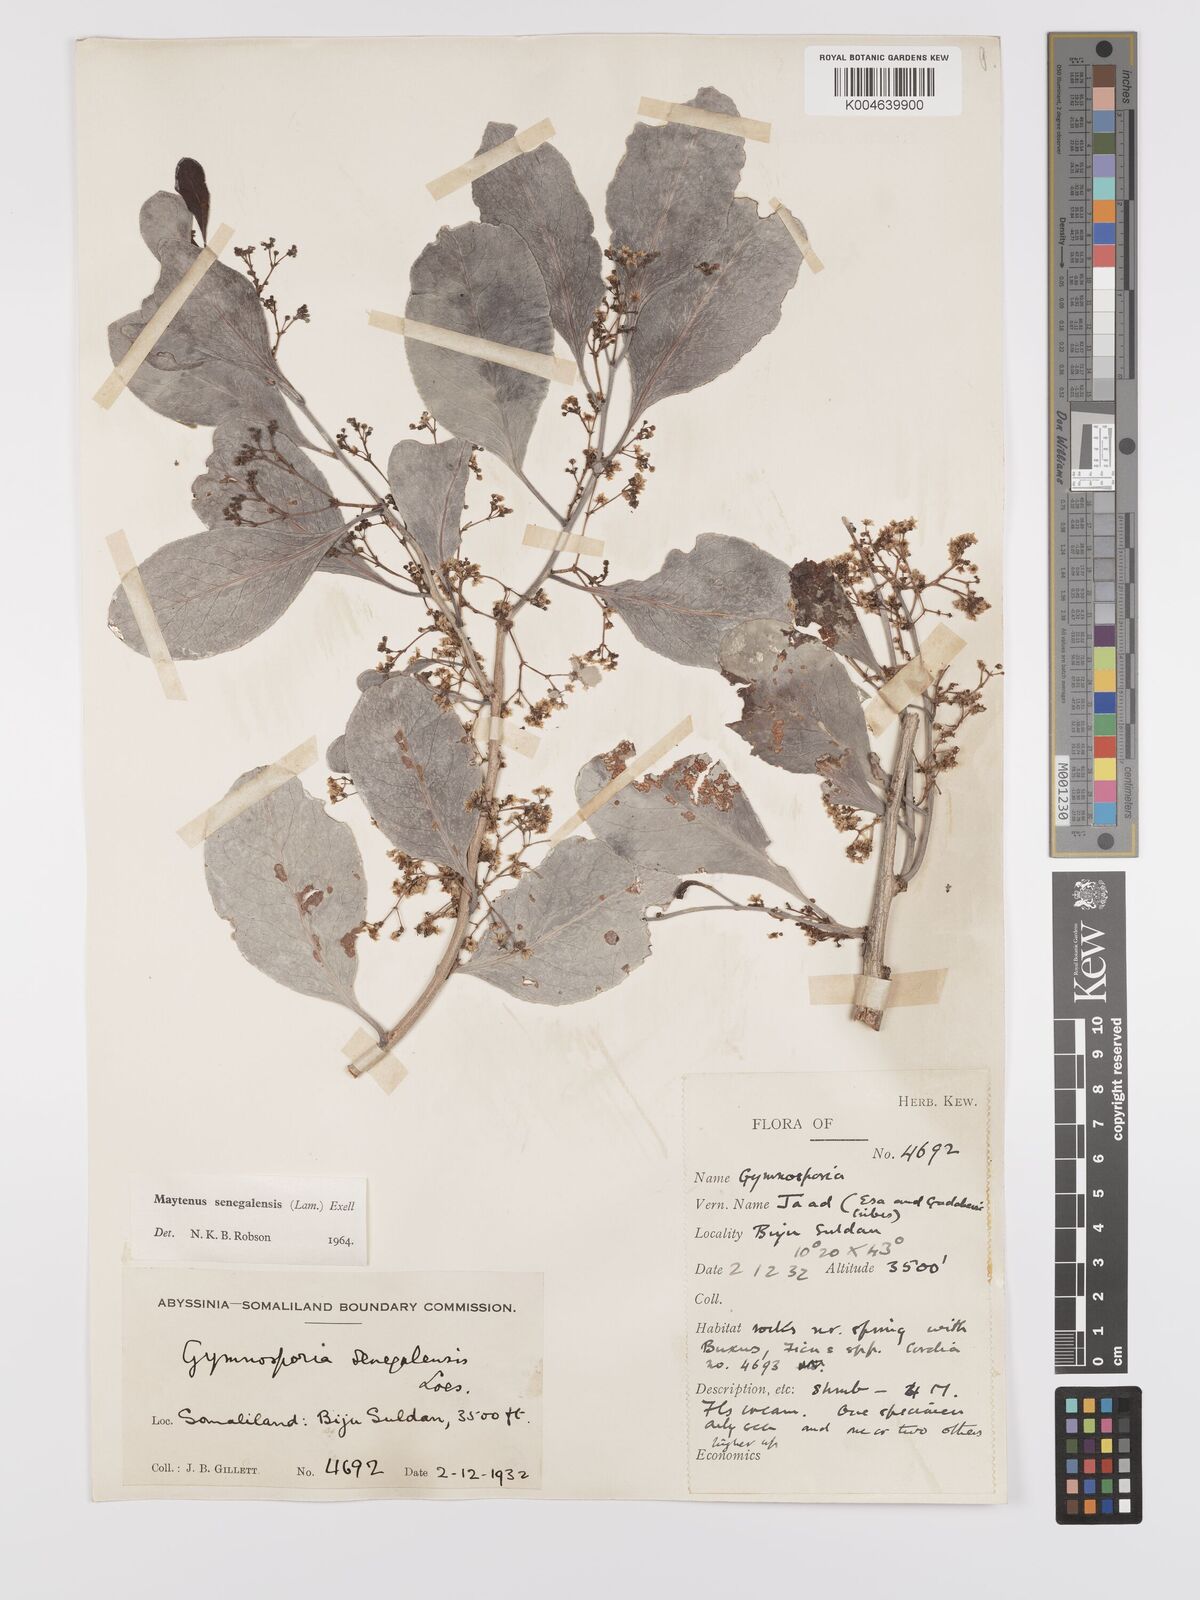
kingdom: Plantae
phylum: Tracheophyta
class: Magnoliopsida
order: Celastrales
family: Celastraceae
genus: Gymnosporia
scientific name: Gymnosporia senegalensis
